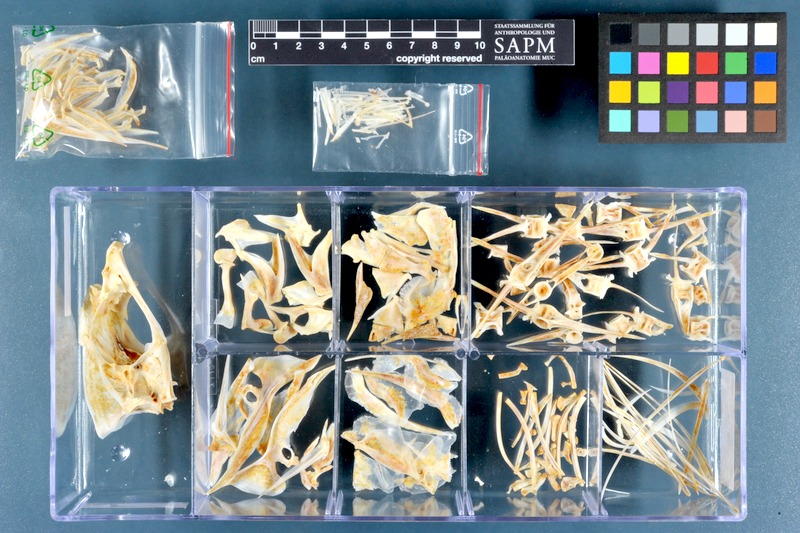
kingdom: Animalia
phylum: Chordata
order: Perciformes
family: Carangidae
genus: Carangoides
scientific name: Carangoides chrysophrys
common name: Longnose trevally
